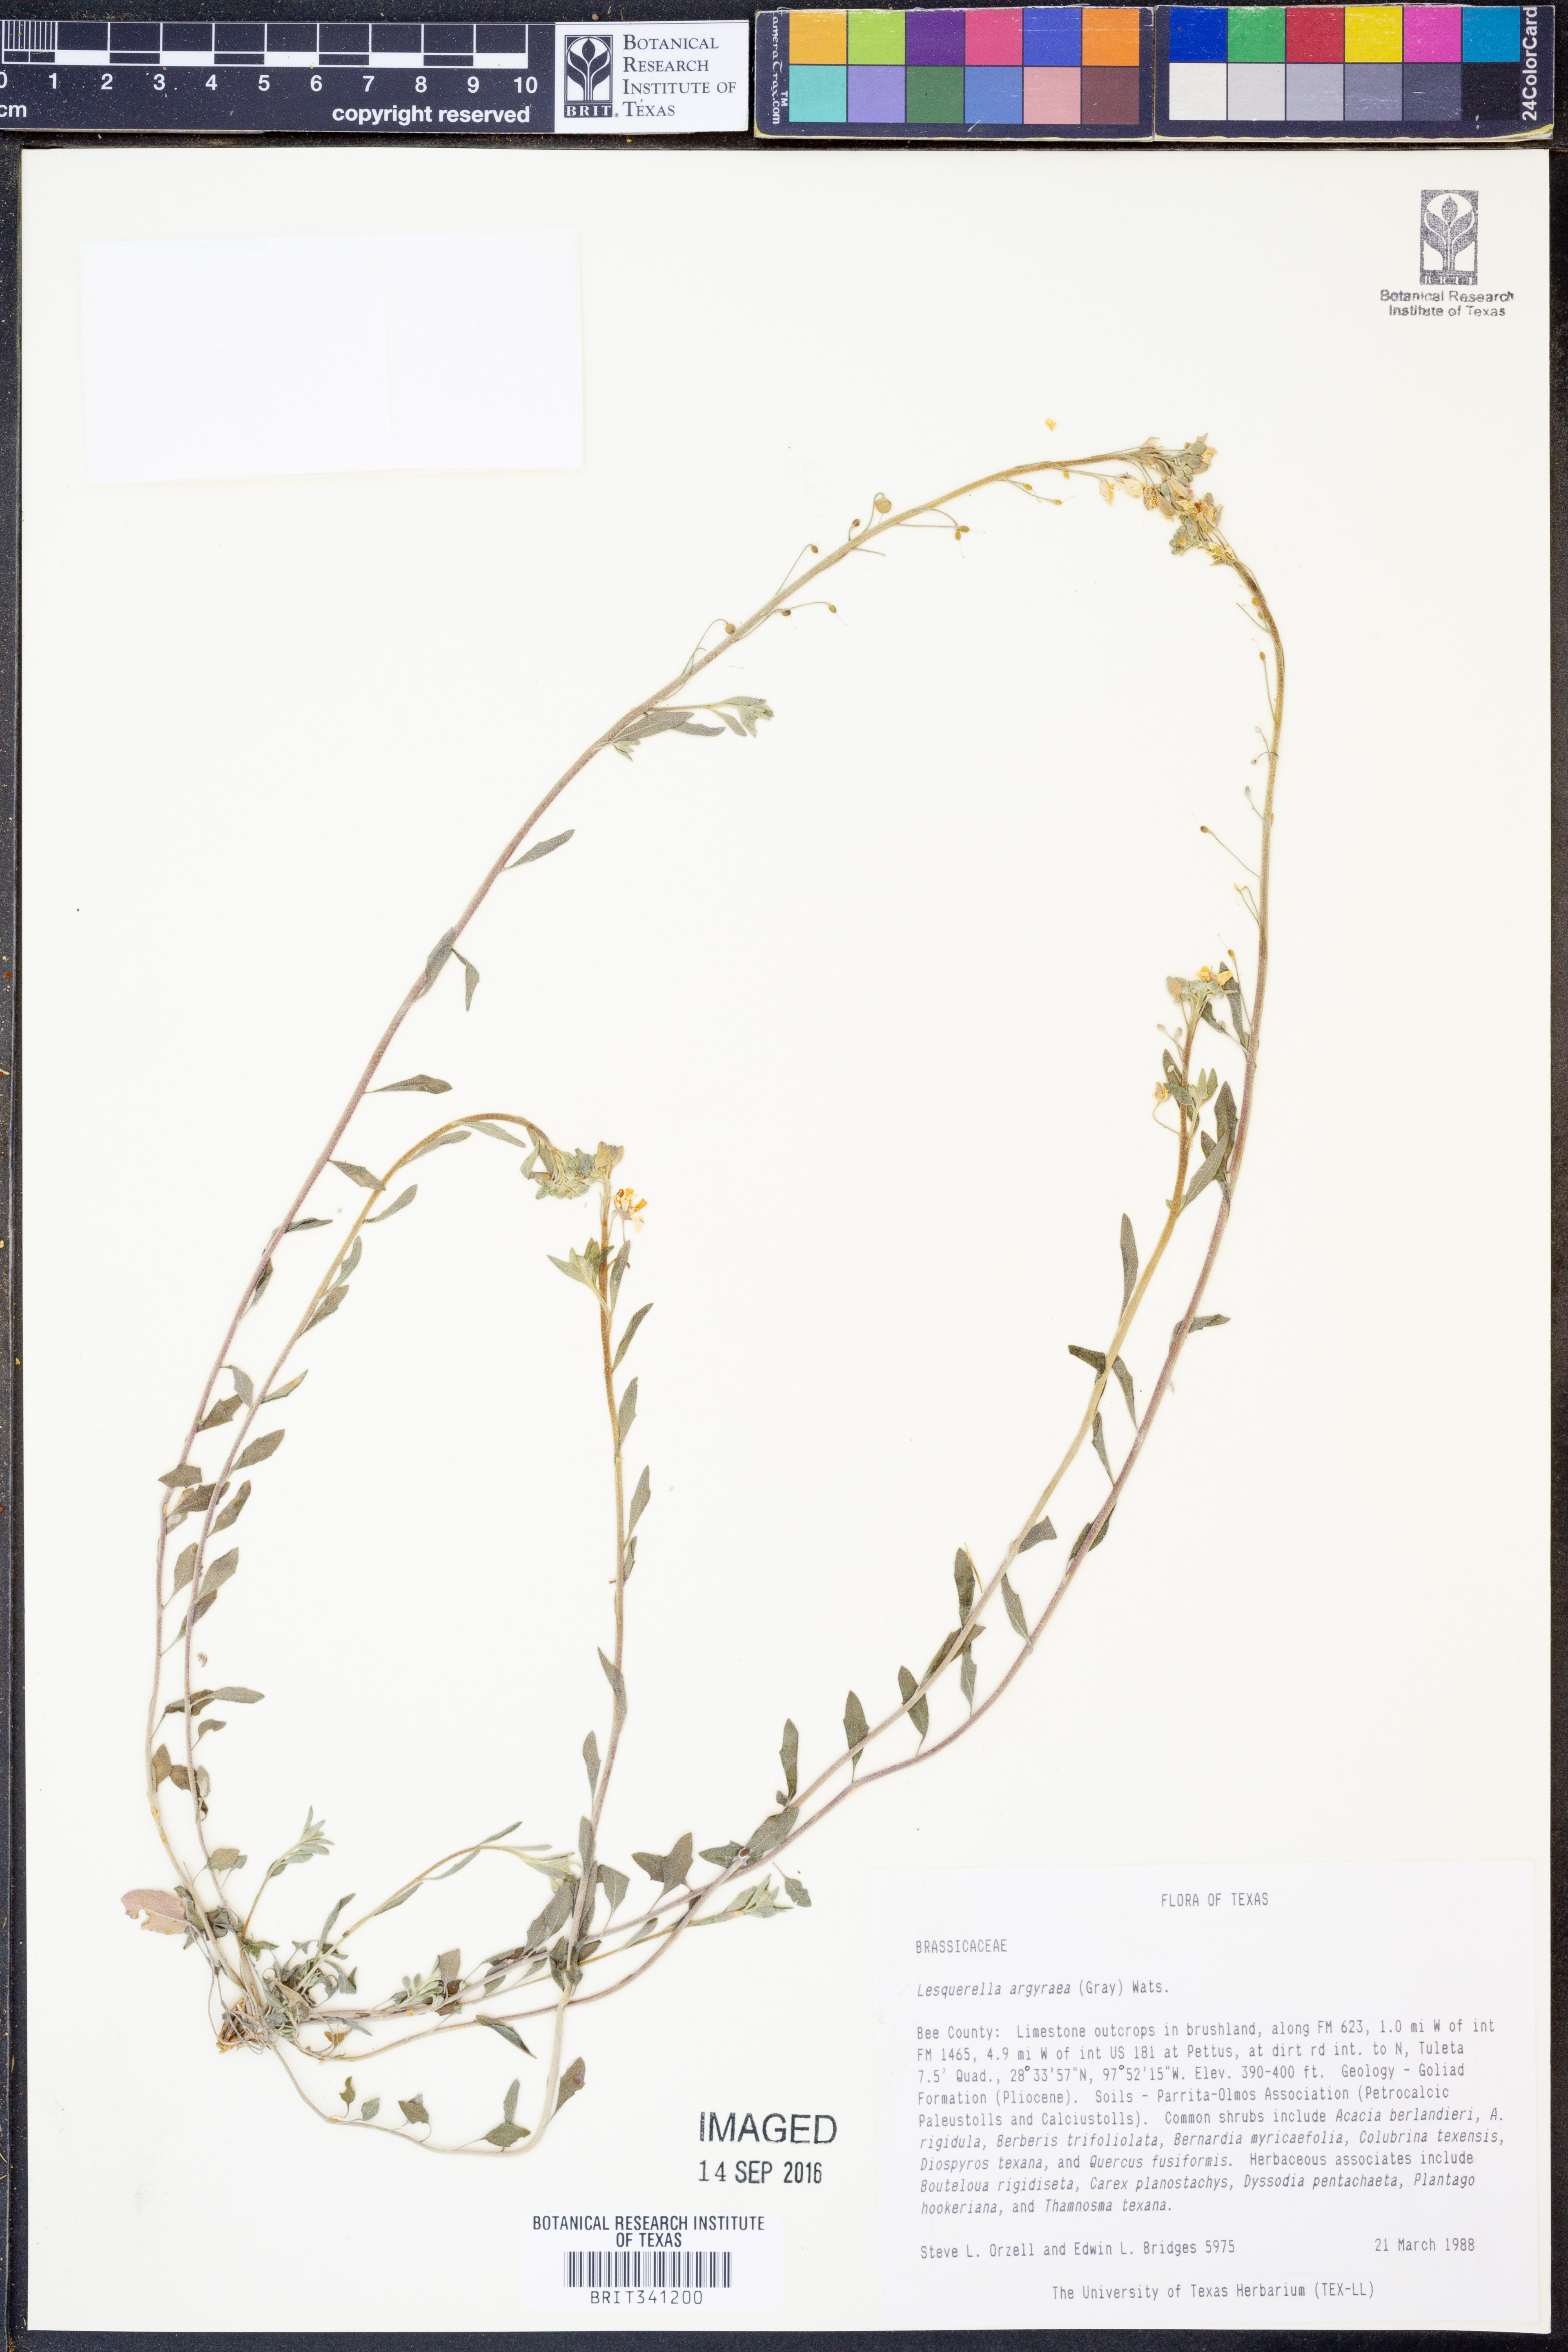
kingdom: Plantae
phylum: Tracheophyta
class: Magnoliopsida
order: Brassicales
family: Brassicaceae
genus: Physaria
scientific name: Physaria argyraea
